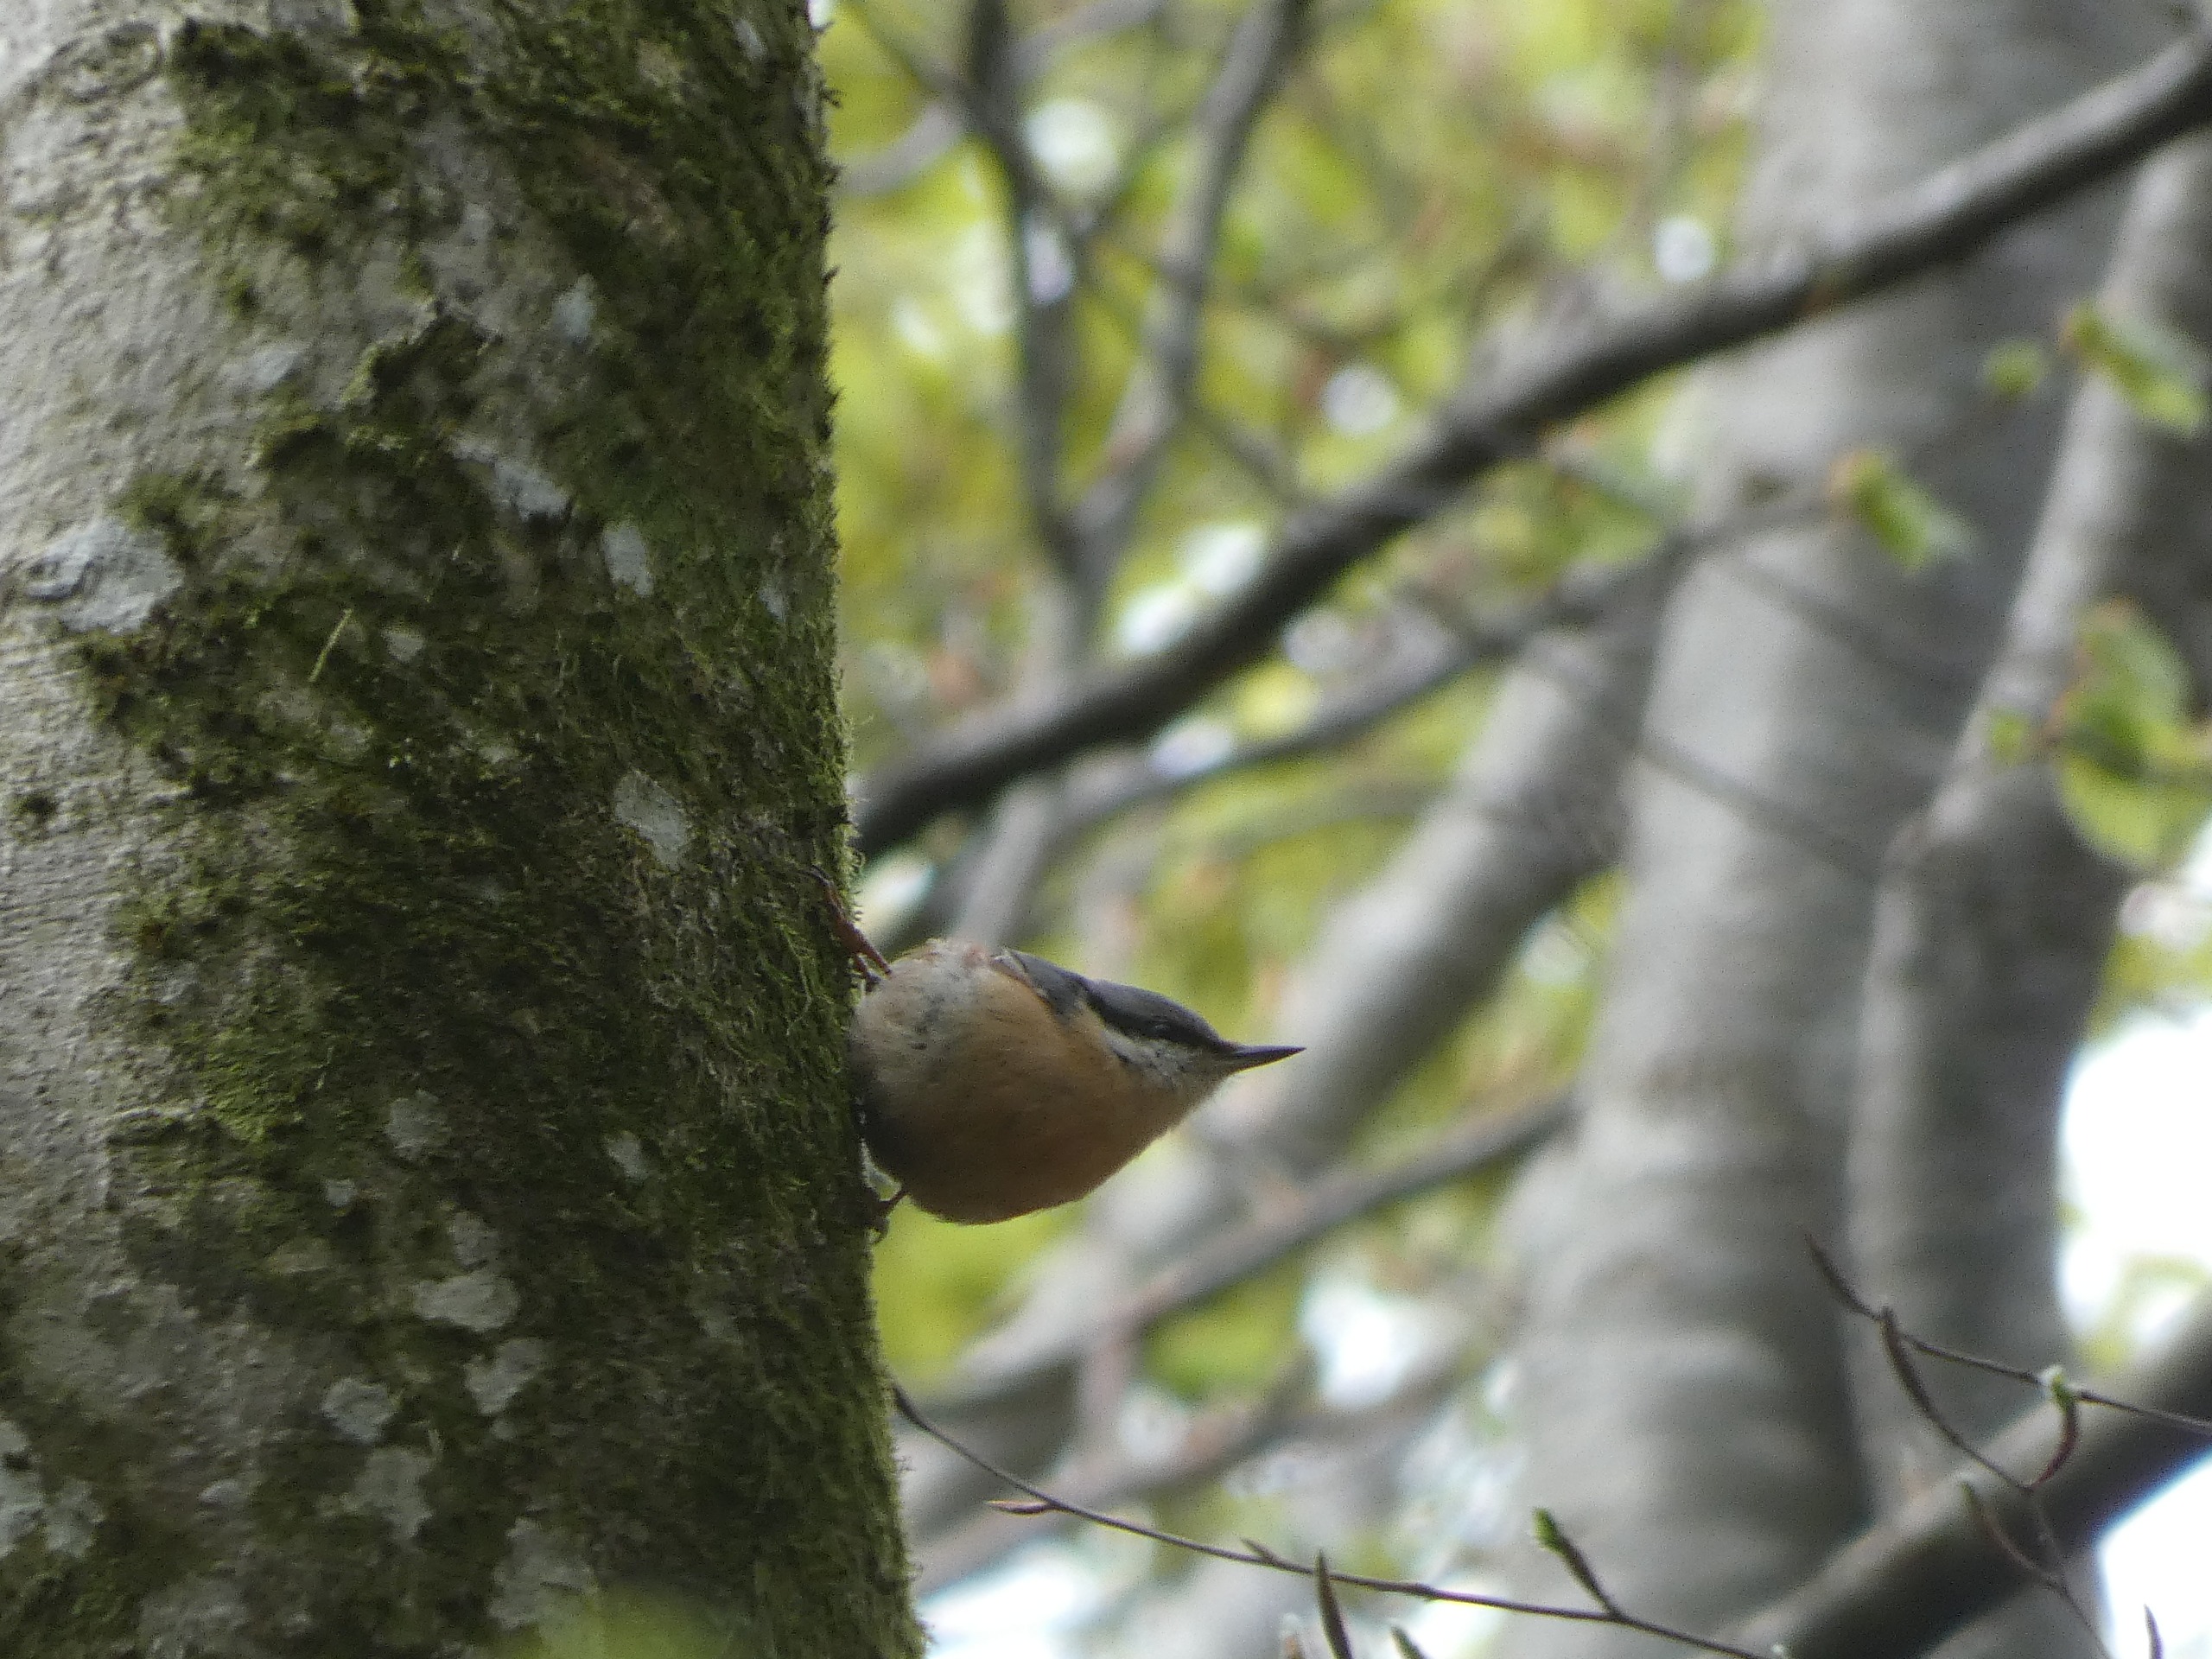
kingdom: Animalia
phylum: Chordata
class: Aves
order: Passeriformes
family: Sittidae
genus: Sitta
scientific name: Sitta europaea
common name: Spætmejse
